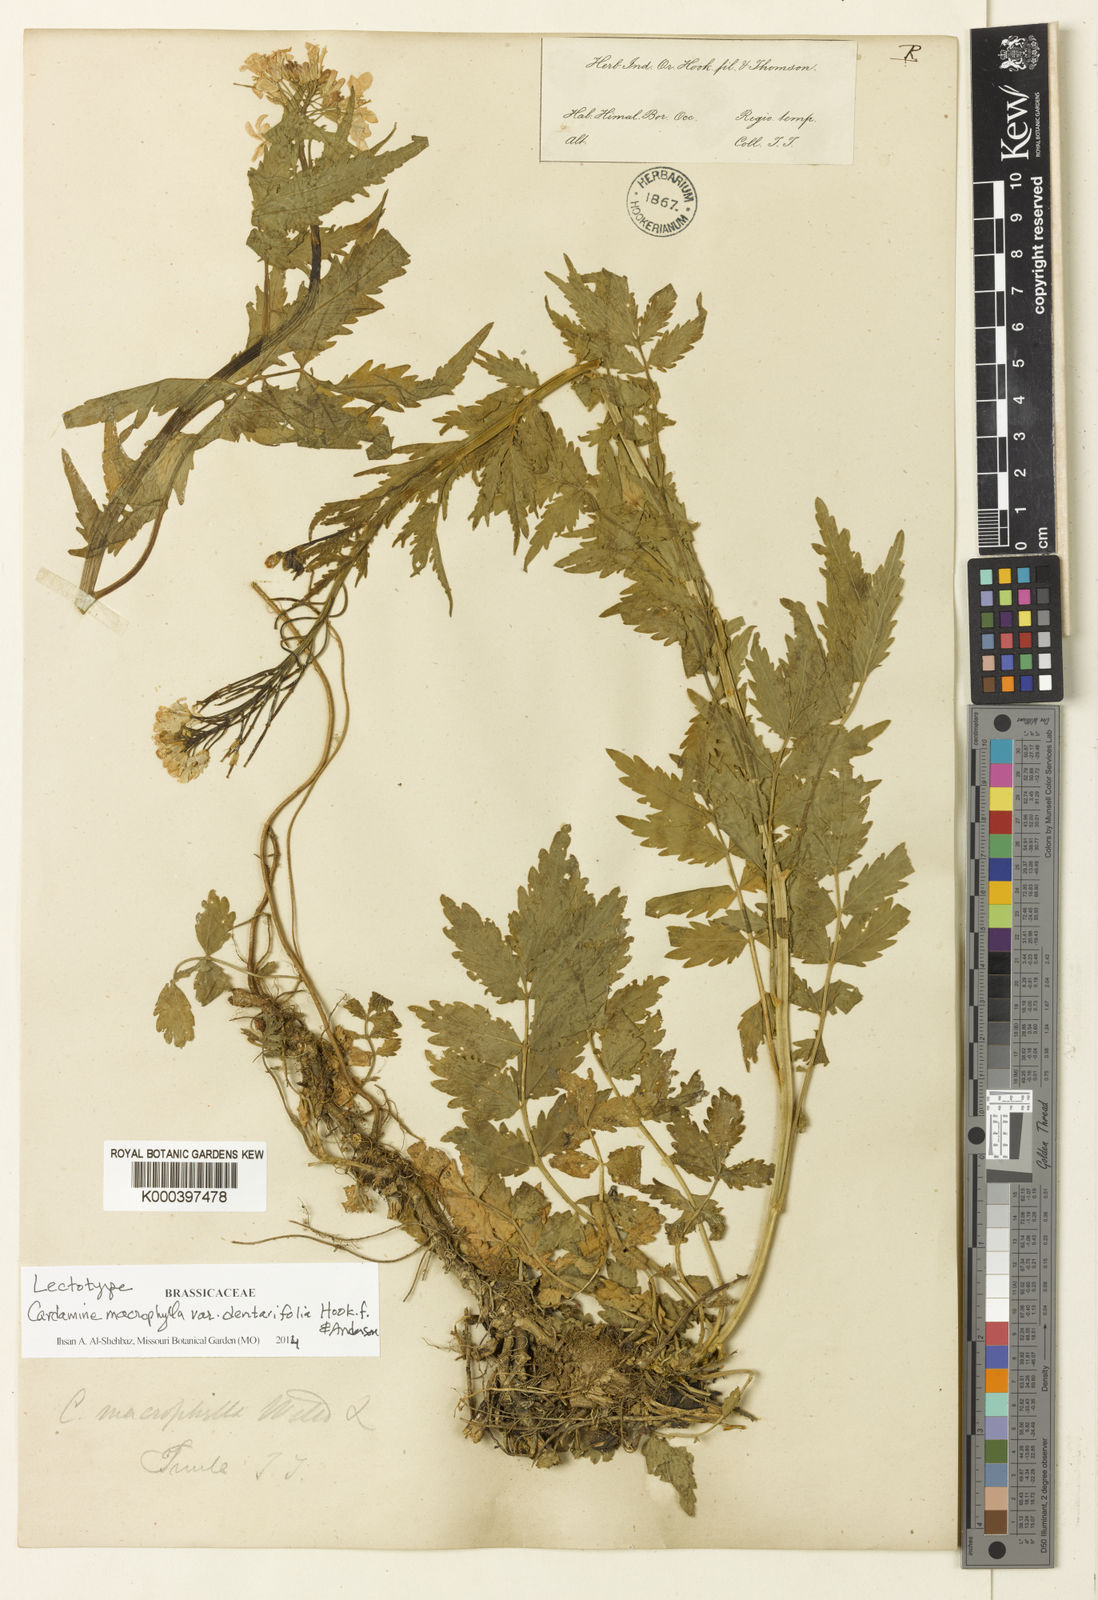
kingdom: Plantae
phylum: Tracheophyta
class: Magnoliopsida
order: Brassicales
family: Brassicaceae
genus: Cardamine
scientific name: Cardamine
